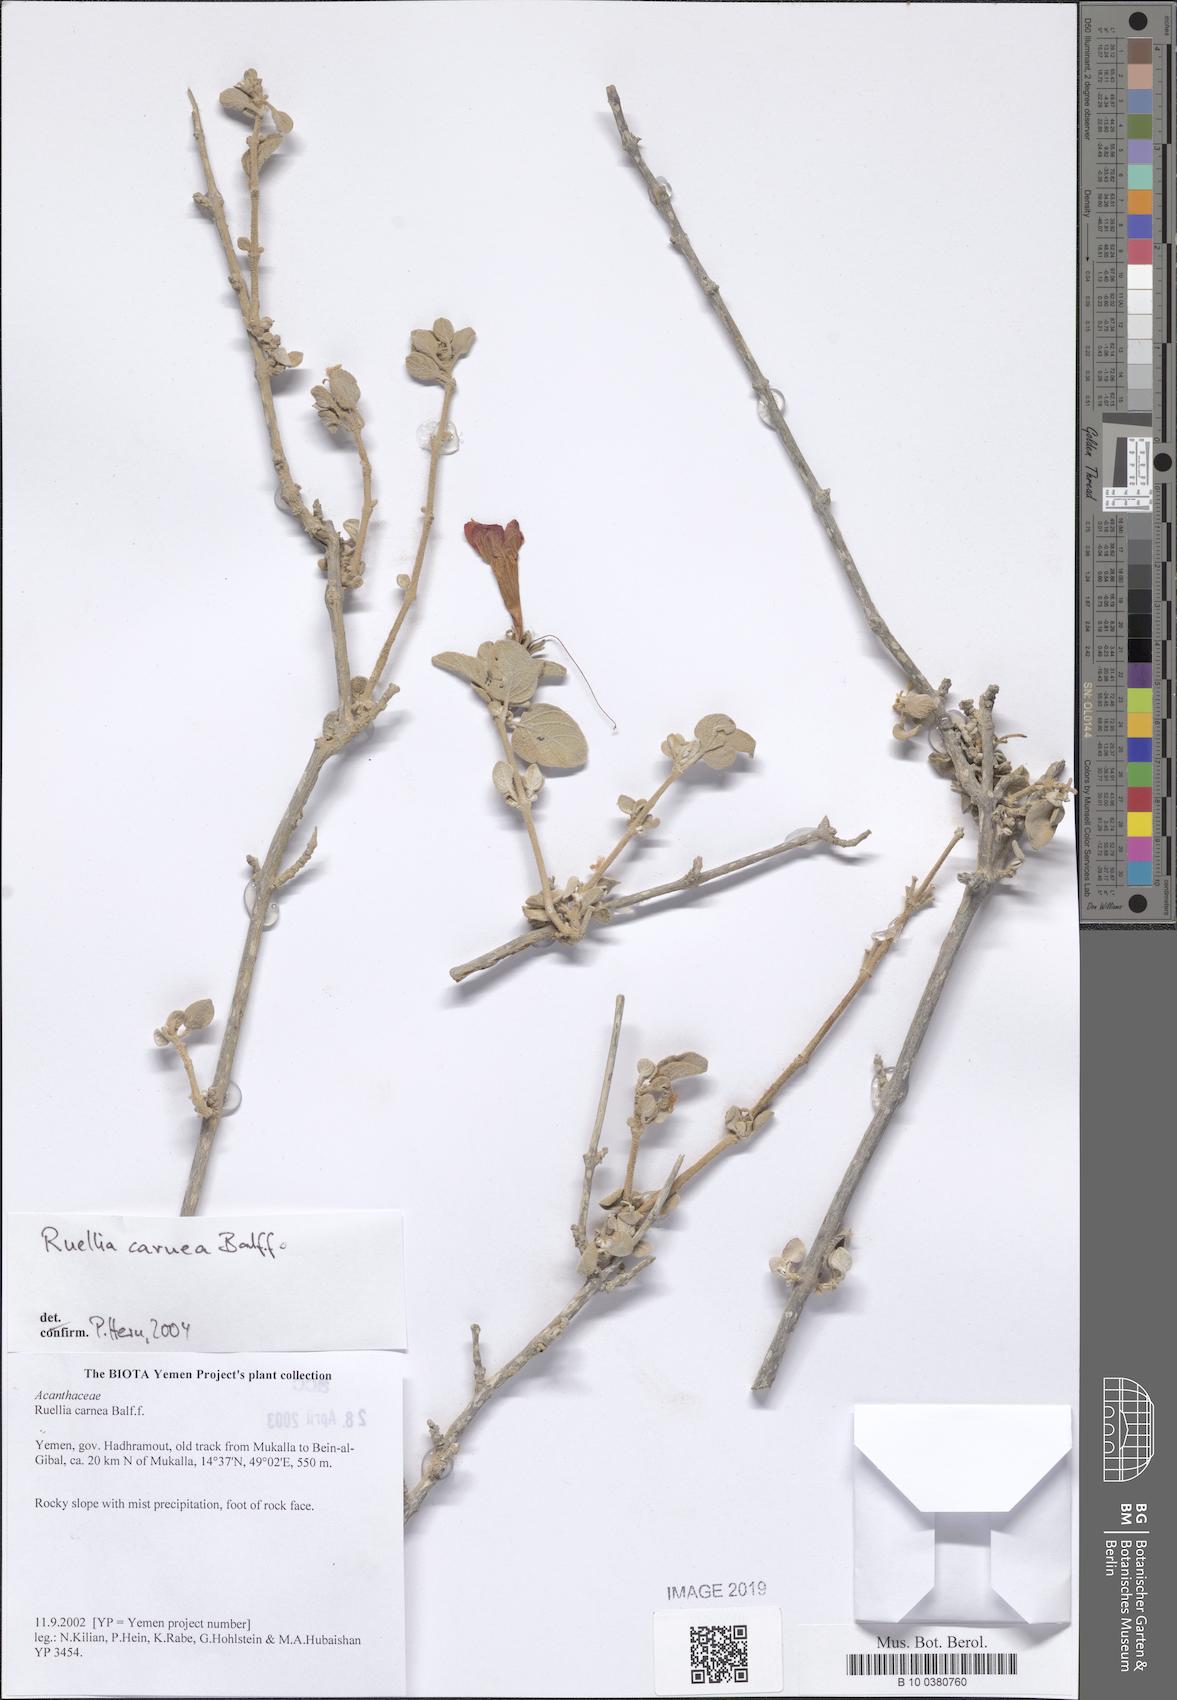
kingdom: Plantae
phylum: Tracheophyta
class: Magnoliopsida
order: Lamiales
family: Acanthaceae
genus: Ruellia
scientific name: Ruellia carnea
